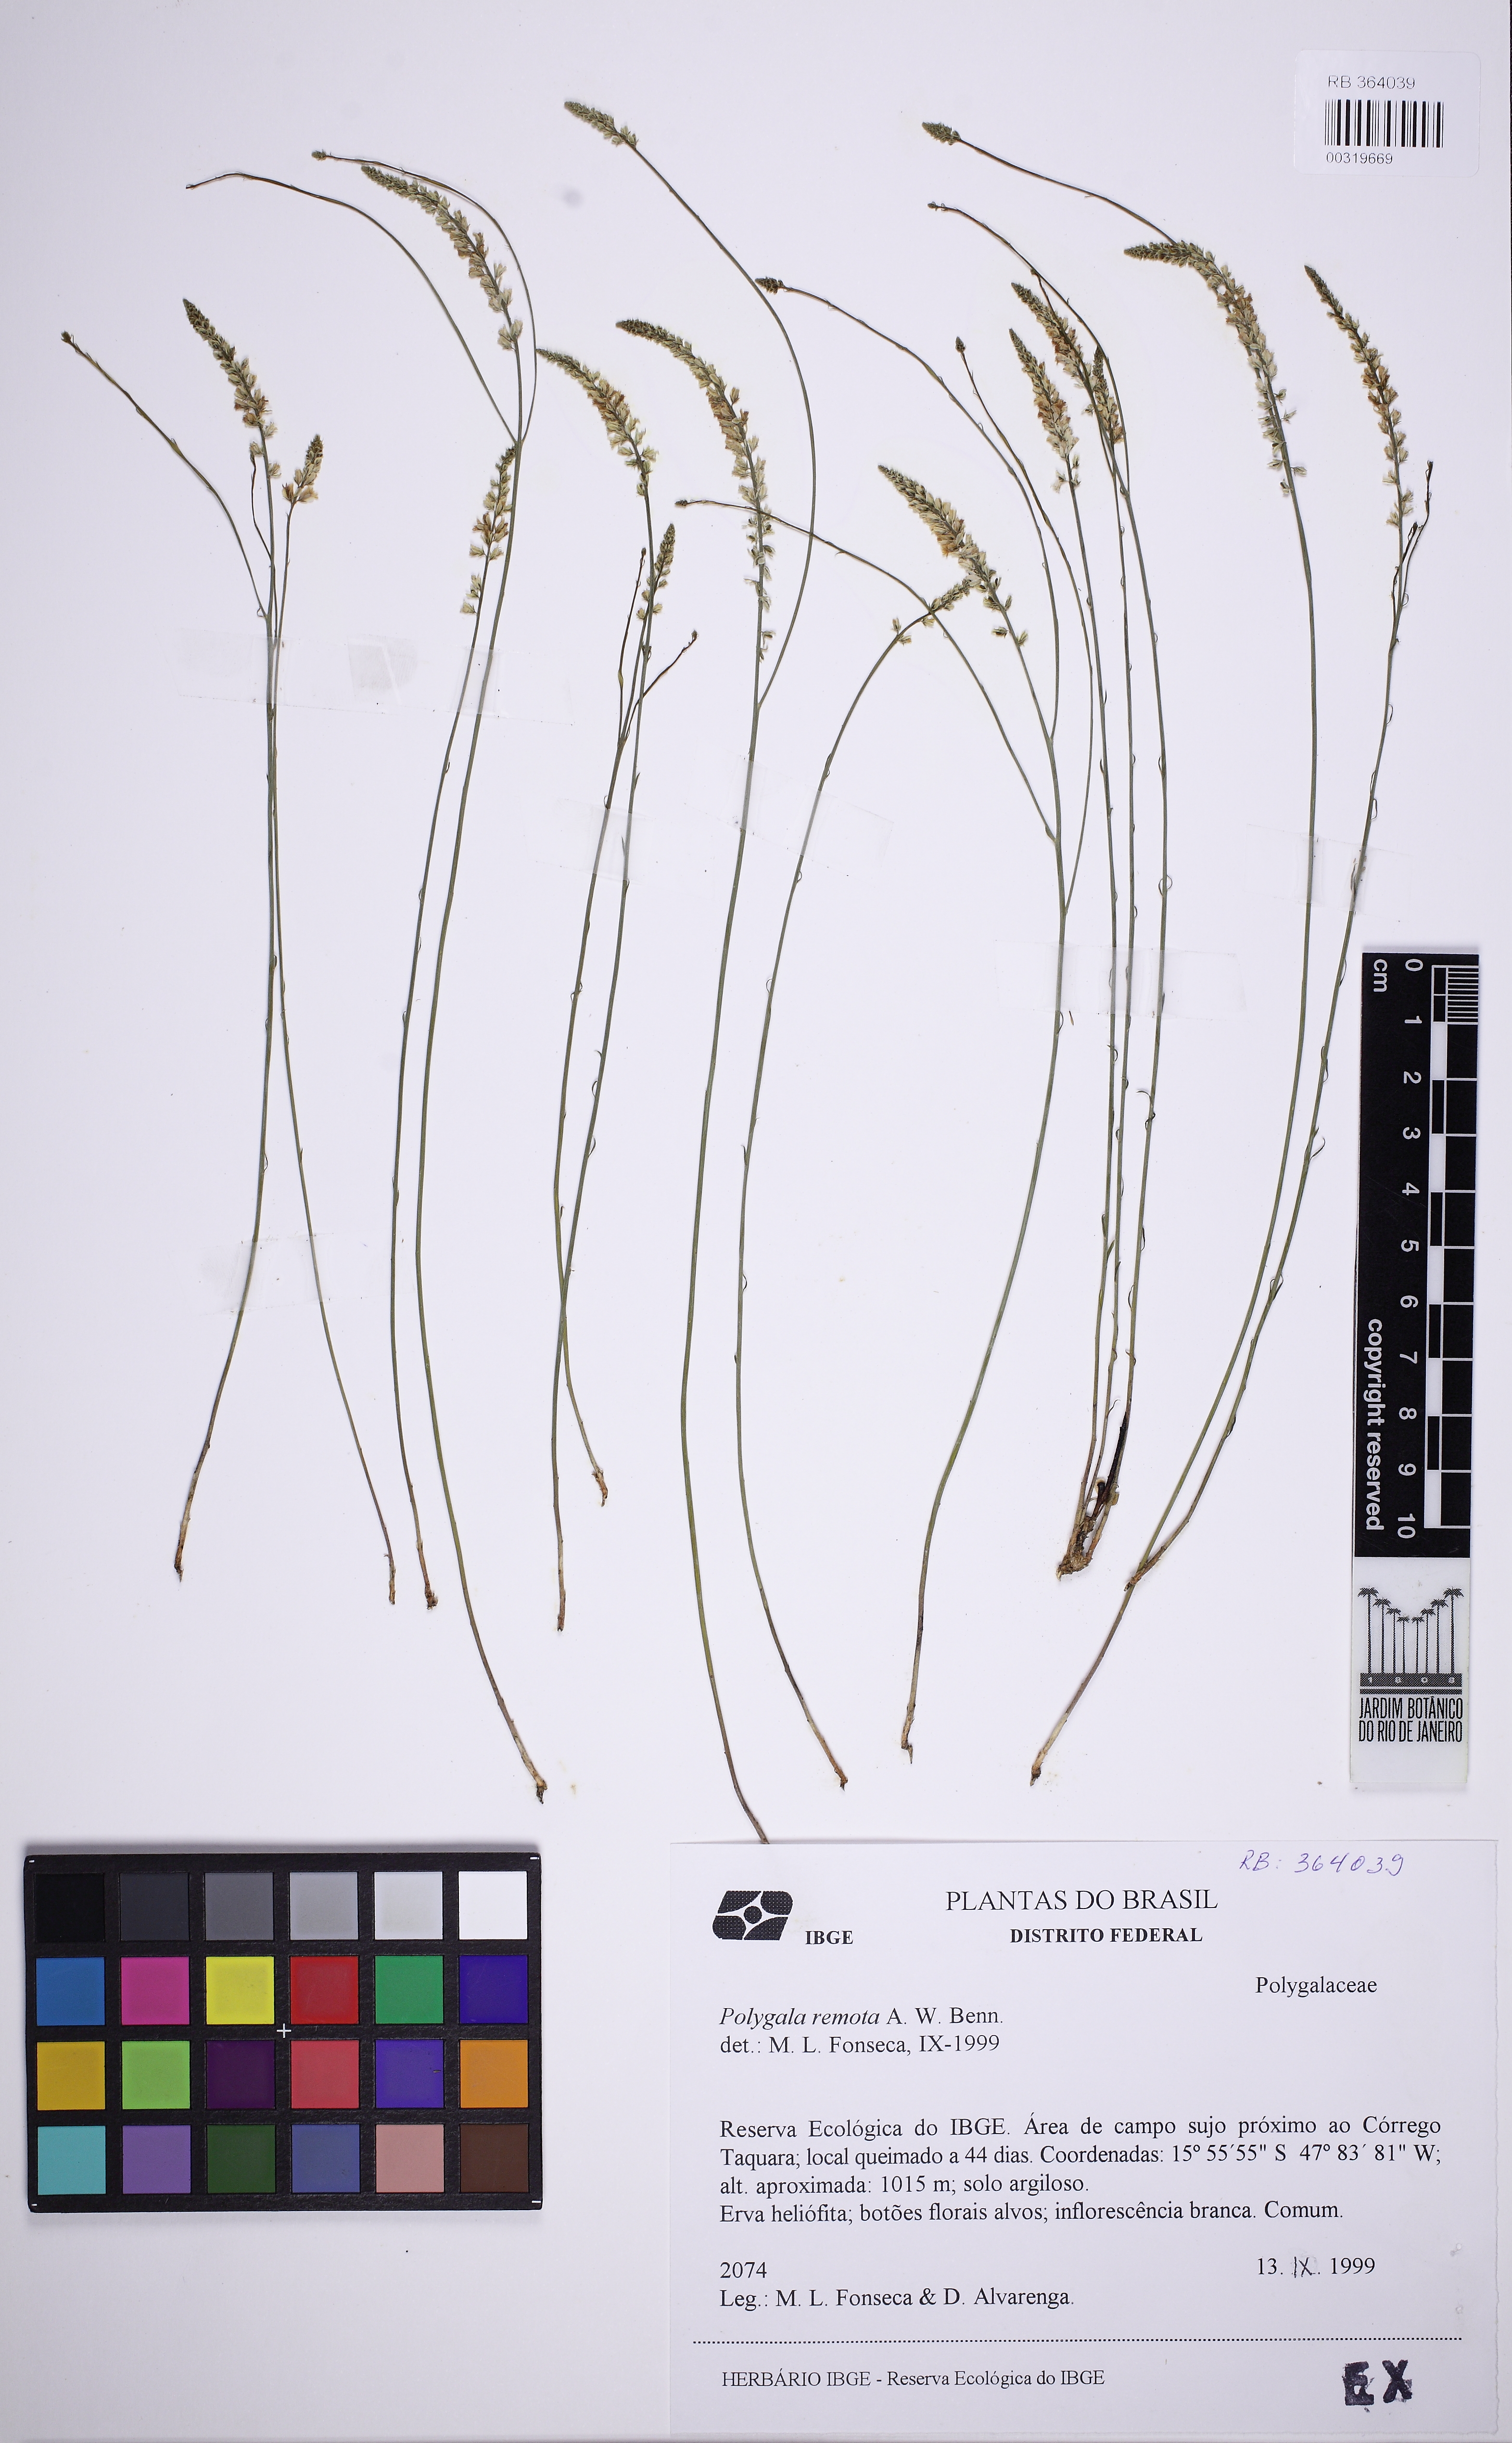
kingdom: Plantae
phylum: Tracheophyta
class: Magnoliopsida
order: Fabales
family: Polygalaceae
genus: Polygala
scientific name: Polygala monosperma
